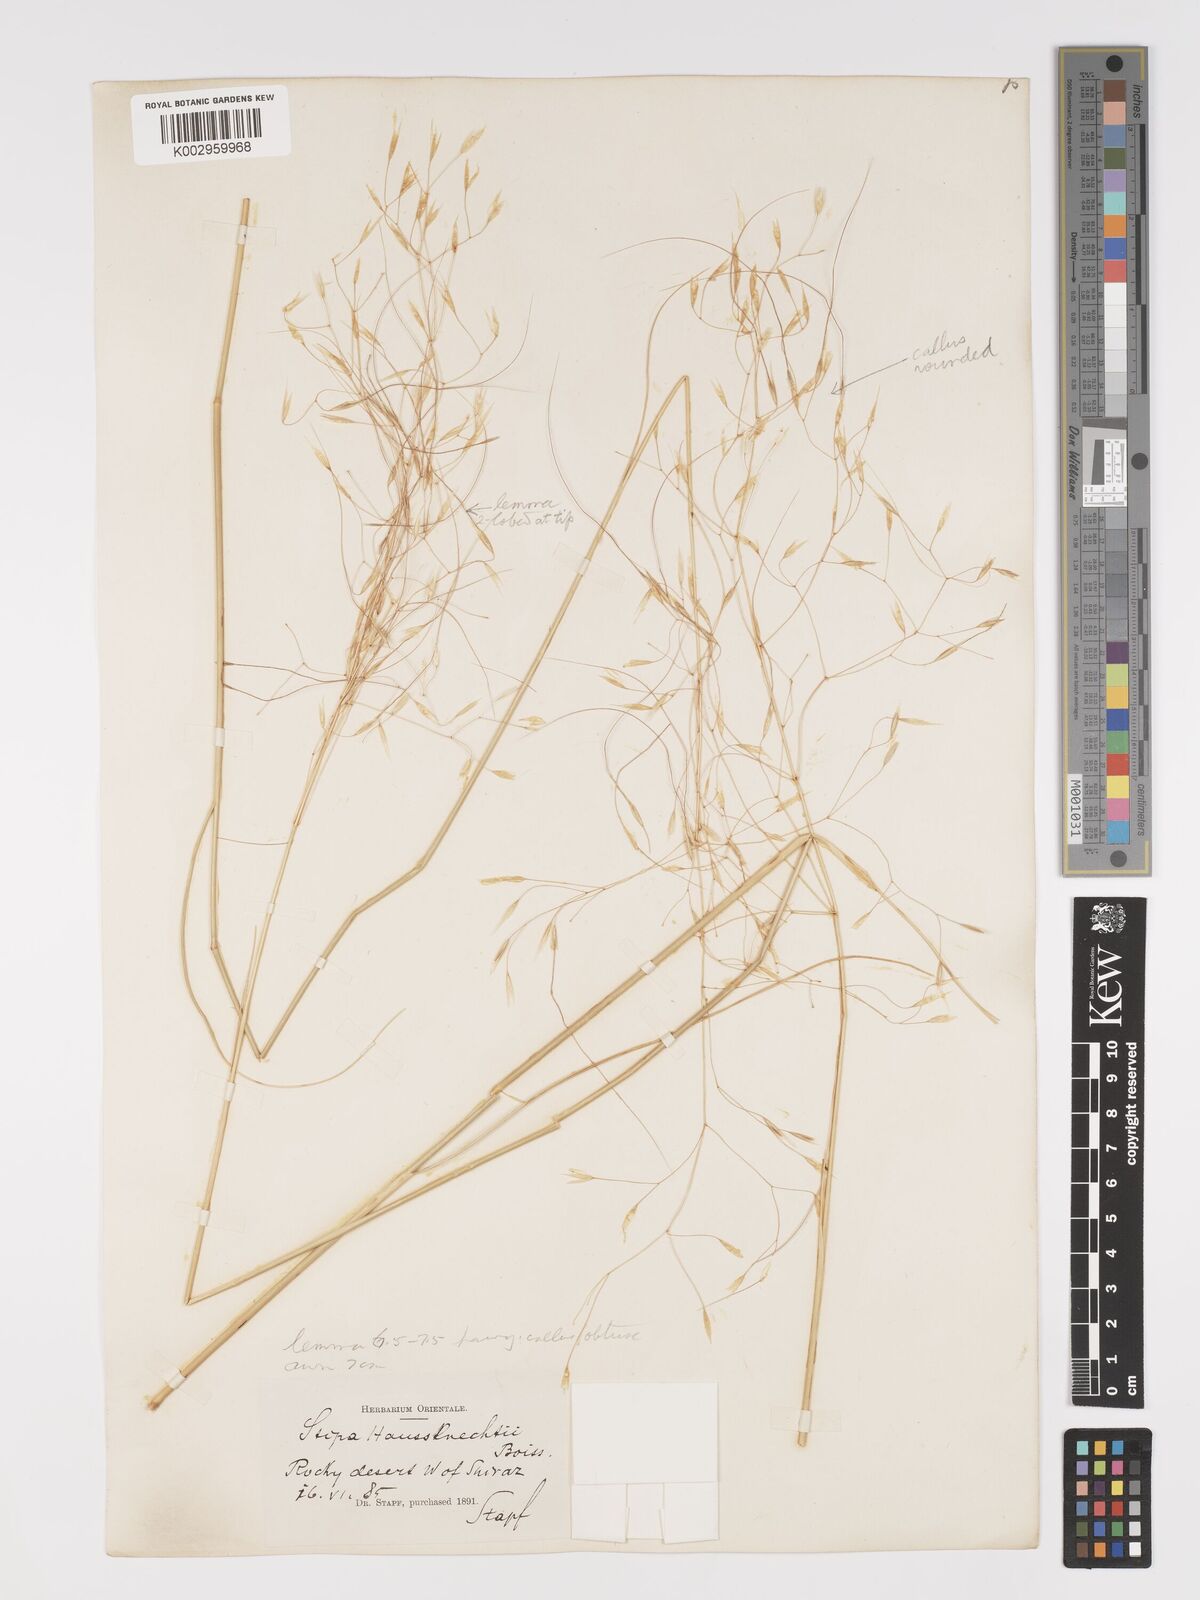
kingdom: Plantae
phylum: Tracheophyta
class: Liliopsida
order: Poales
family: Poaceae
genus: Achnatherum
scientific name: Achnatherum haussknechtii
